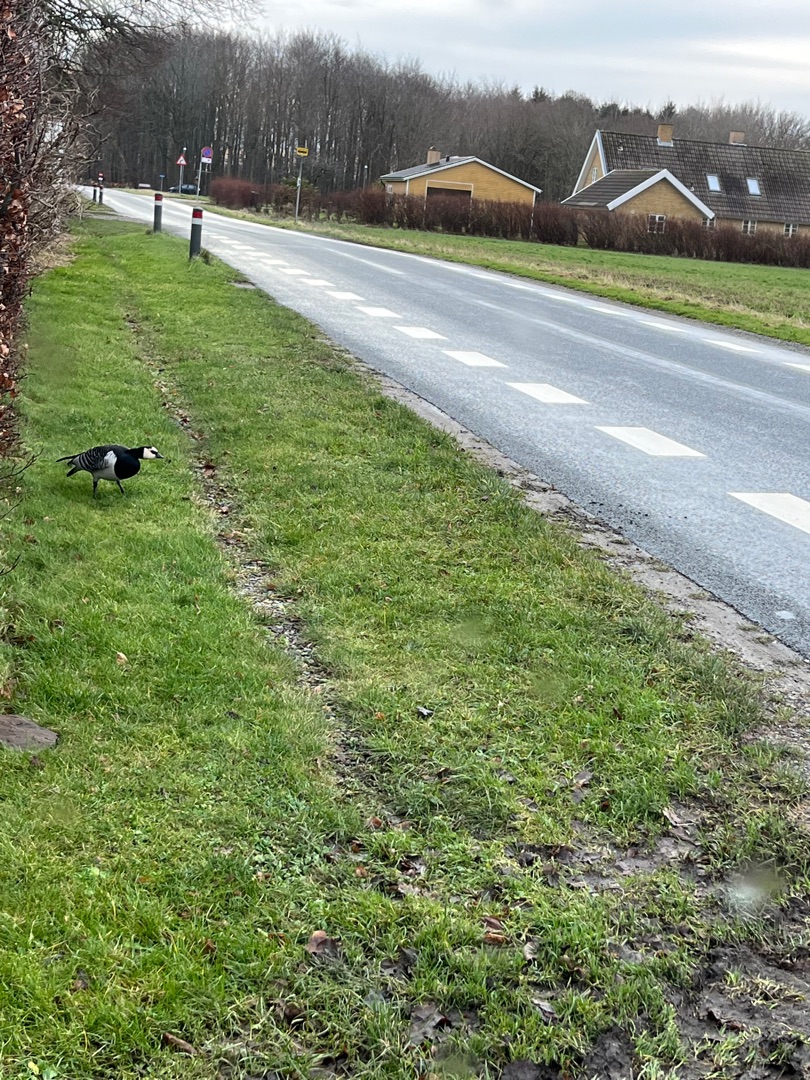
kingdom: Animalia
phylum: Chordata
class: Aves
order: Anseriformes
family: Anatidae
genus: Branta
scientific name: Branta leucopsis
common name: Bramgås
